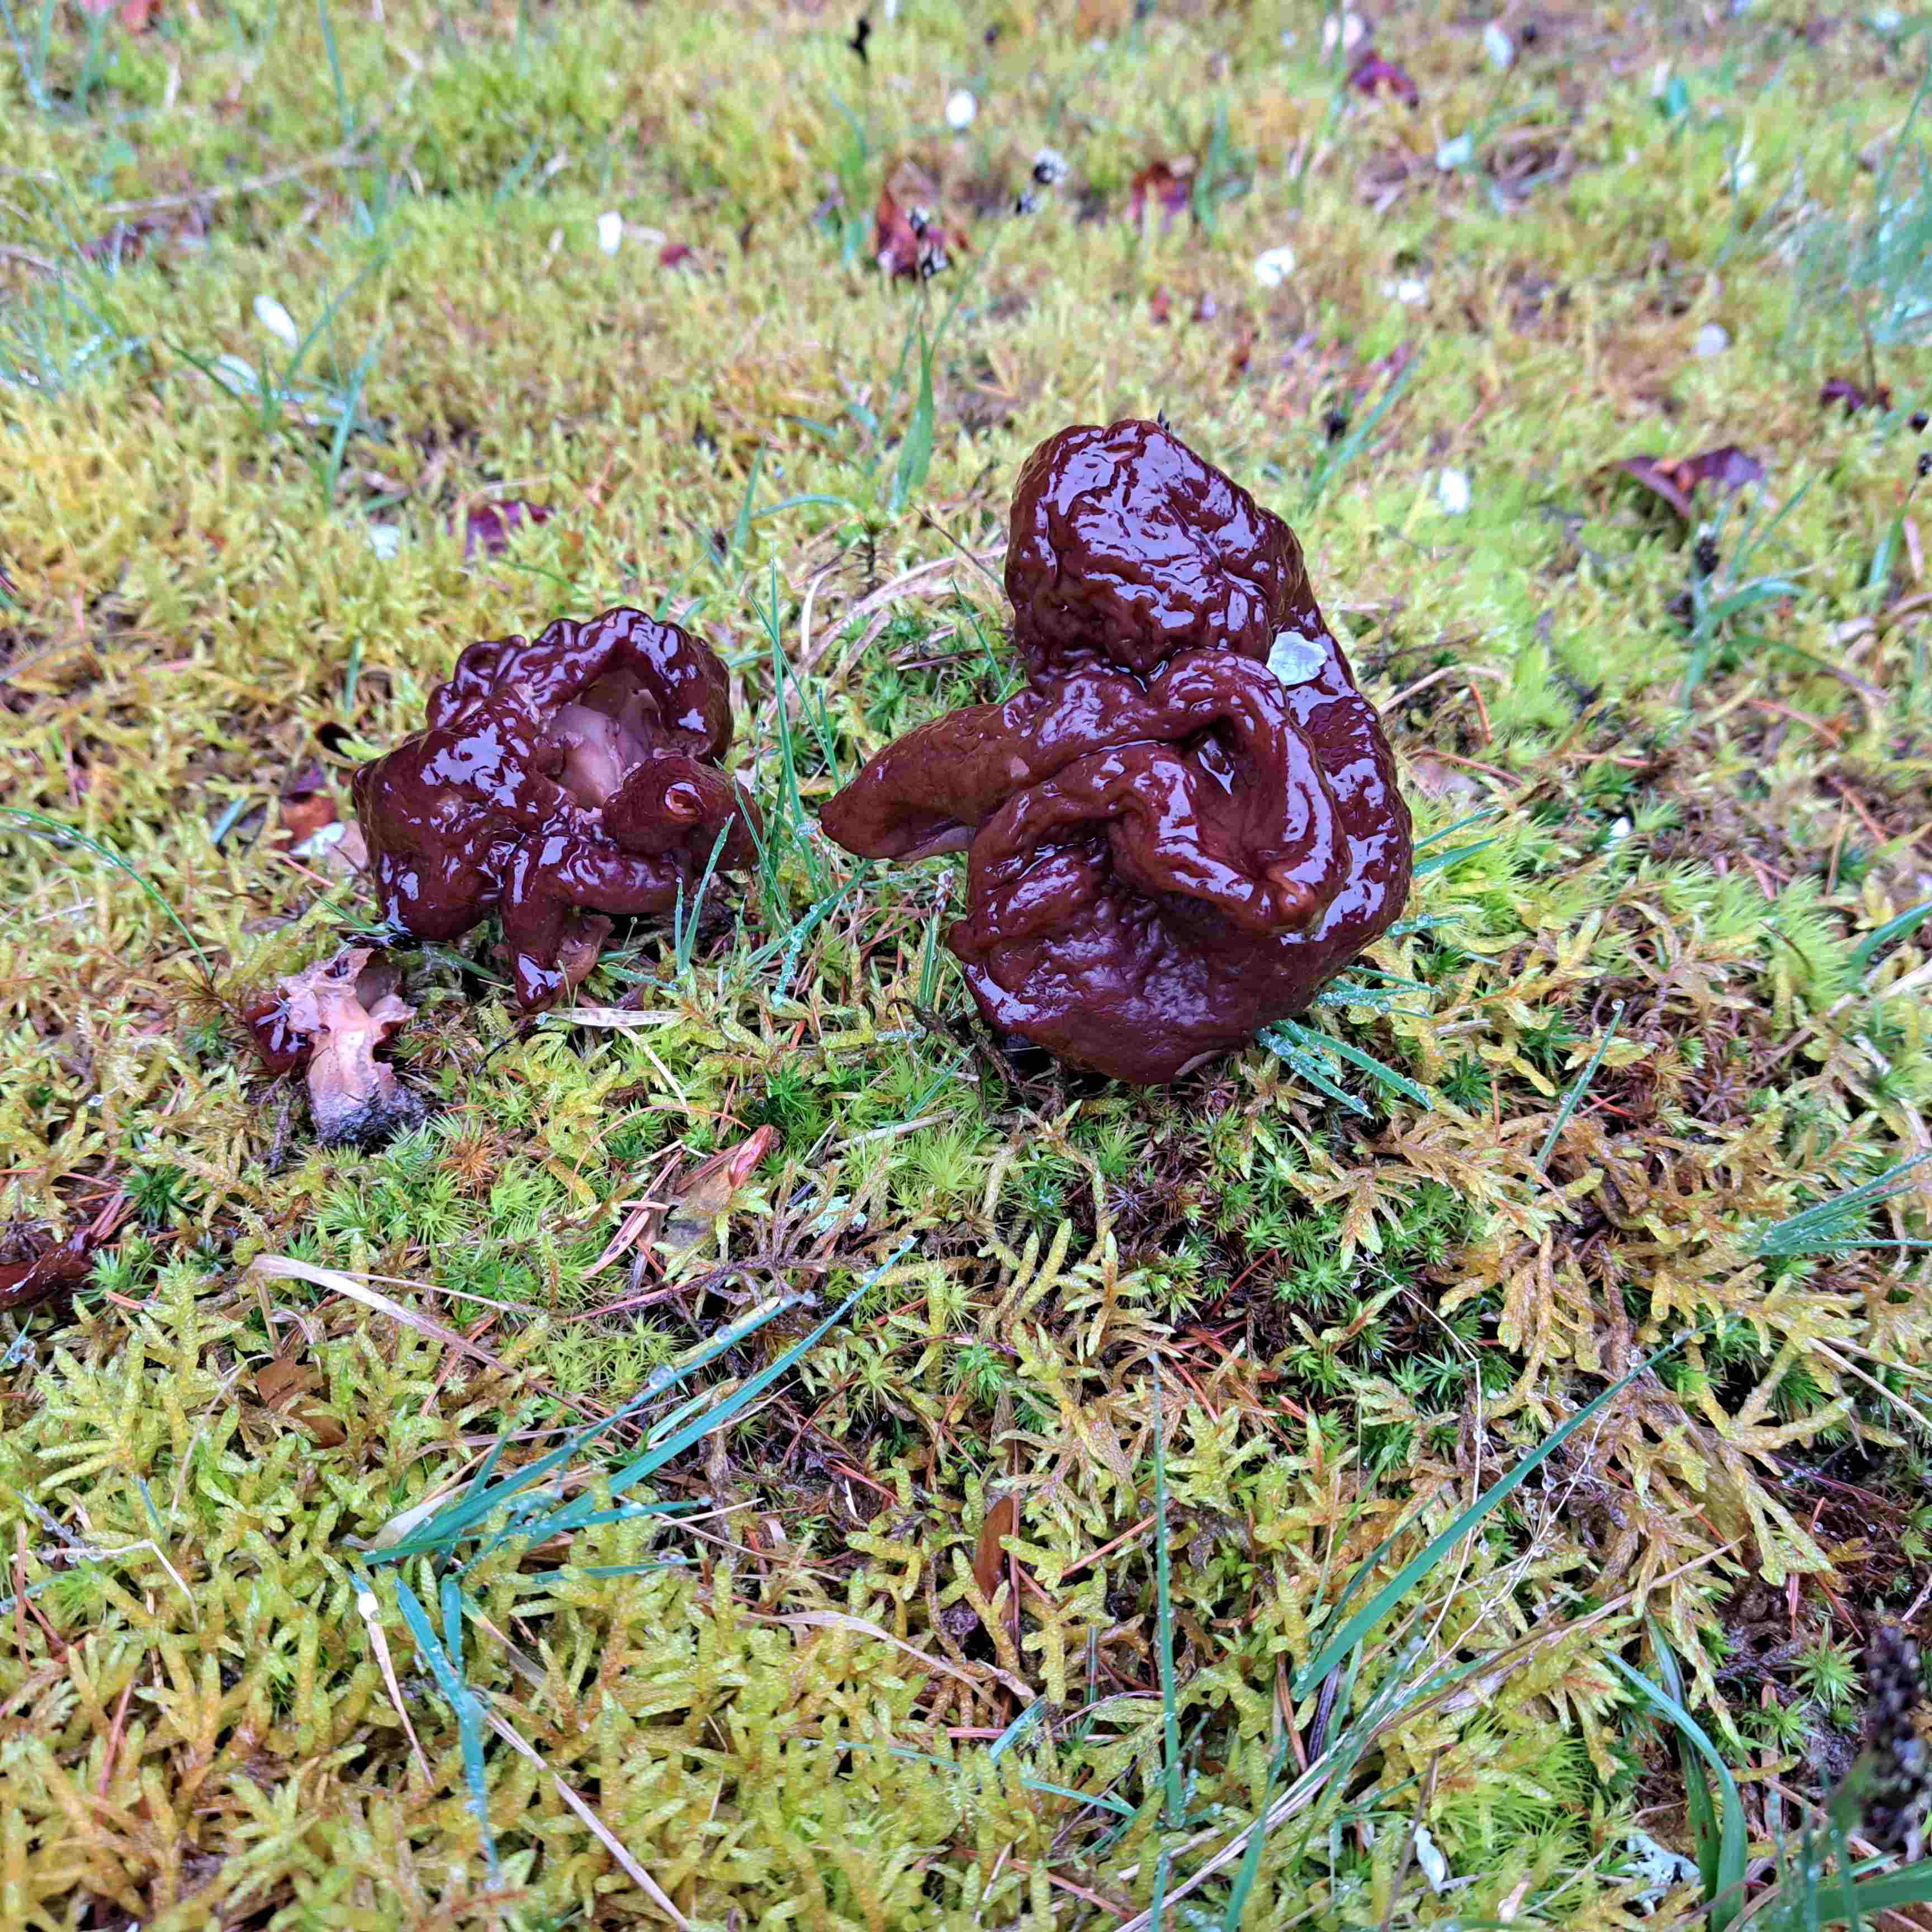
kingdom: Fungi
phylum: Ascomycota
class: Pezizomycetes
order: Pezizales
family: Discinaceae
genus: Gyromitra
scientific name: Gyromitra esculenta
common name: ægte stenmorkel
